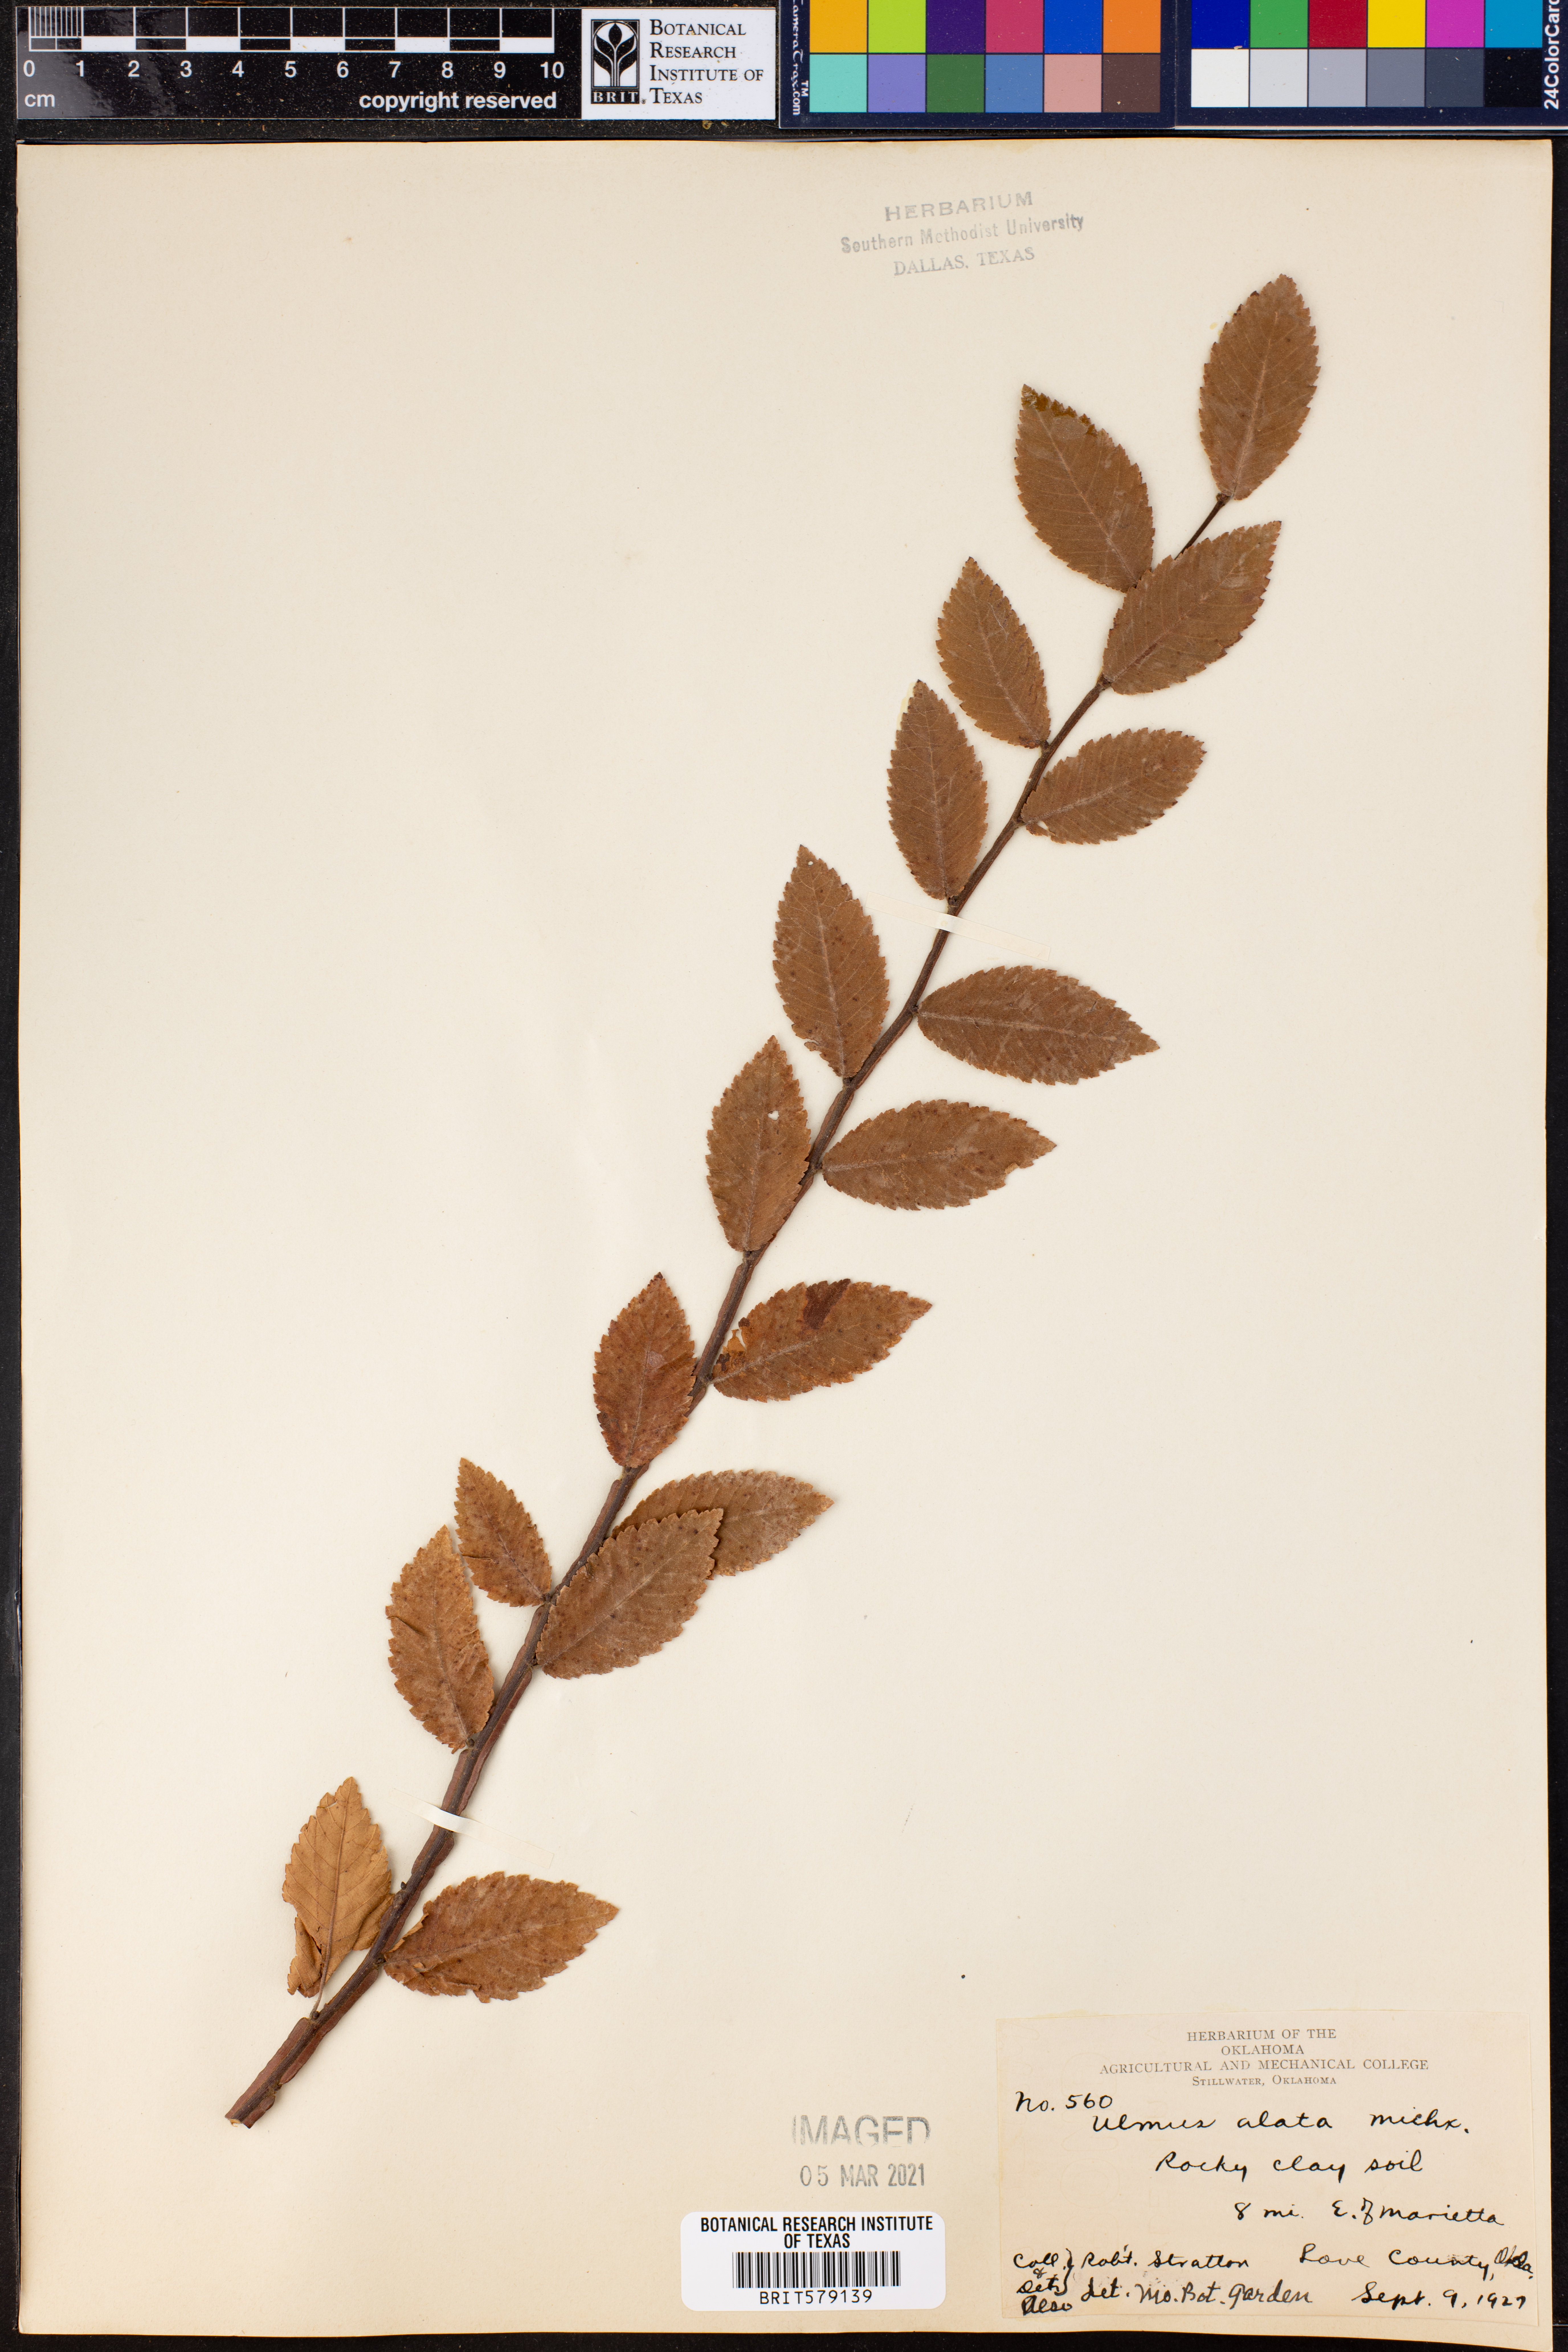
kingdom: Plantae
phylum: Tracheophyta
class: Magnoliopsida
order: Rosales
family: Ulmaceae
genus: Ulmus
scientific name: Ulmus alata
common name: Winged elm
